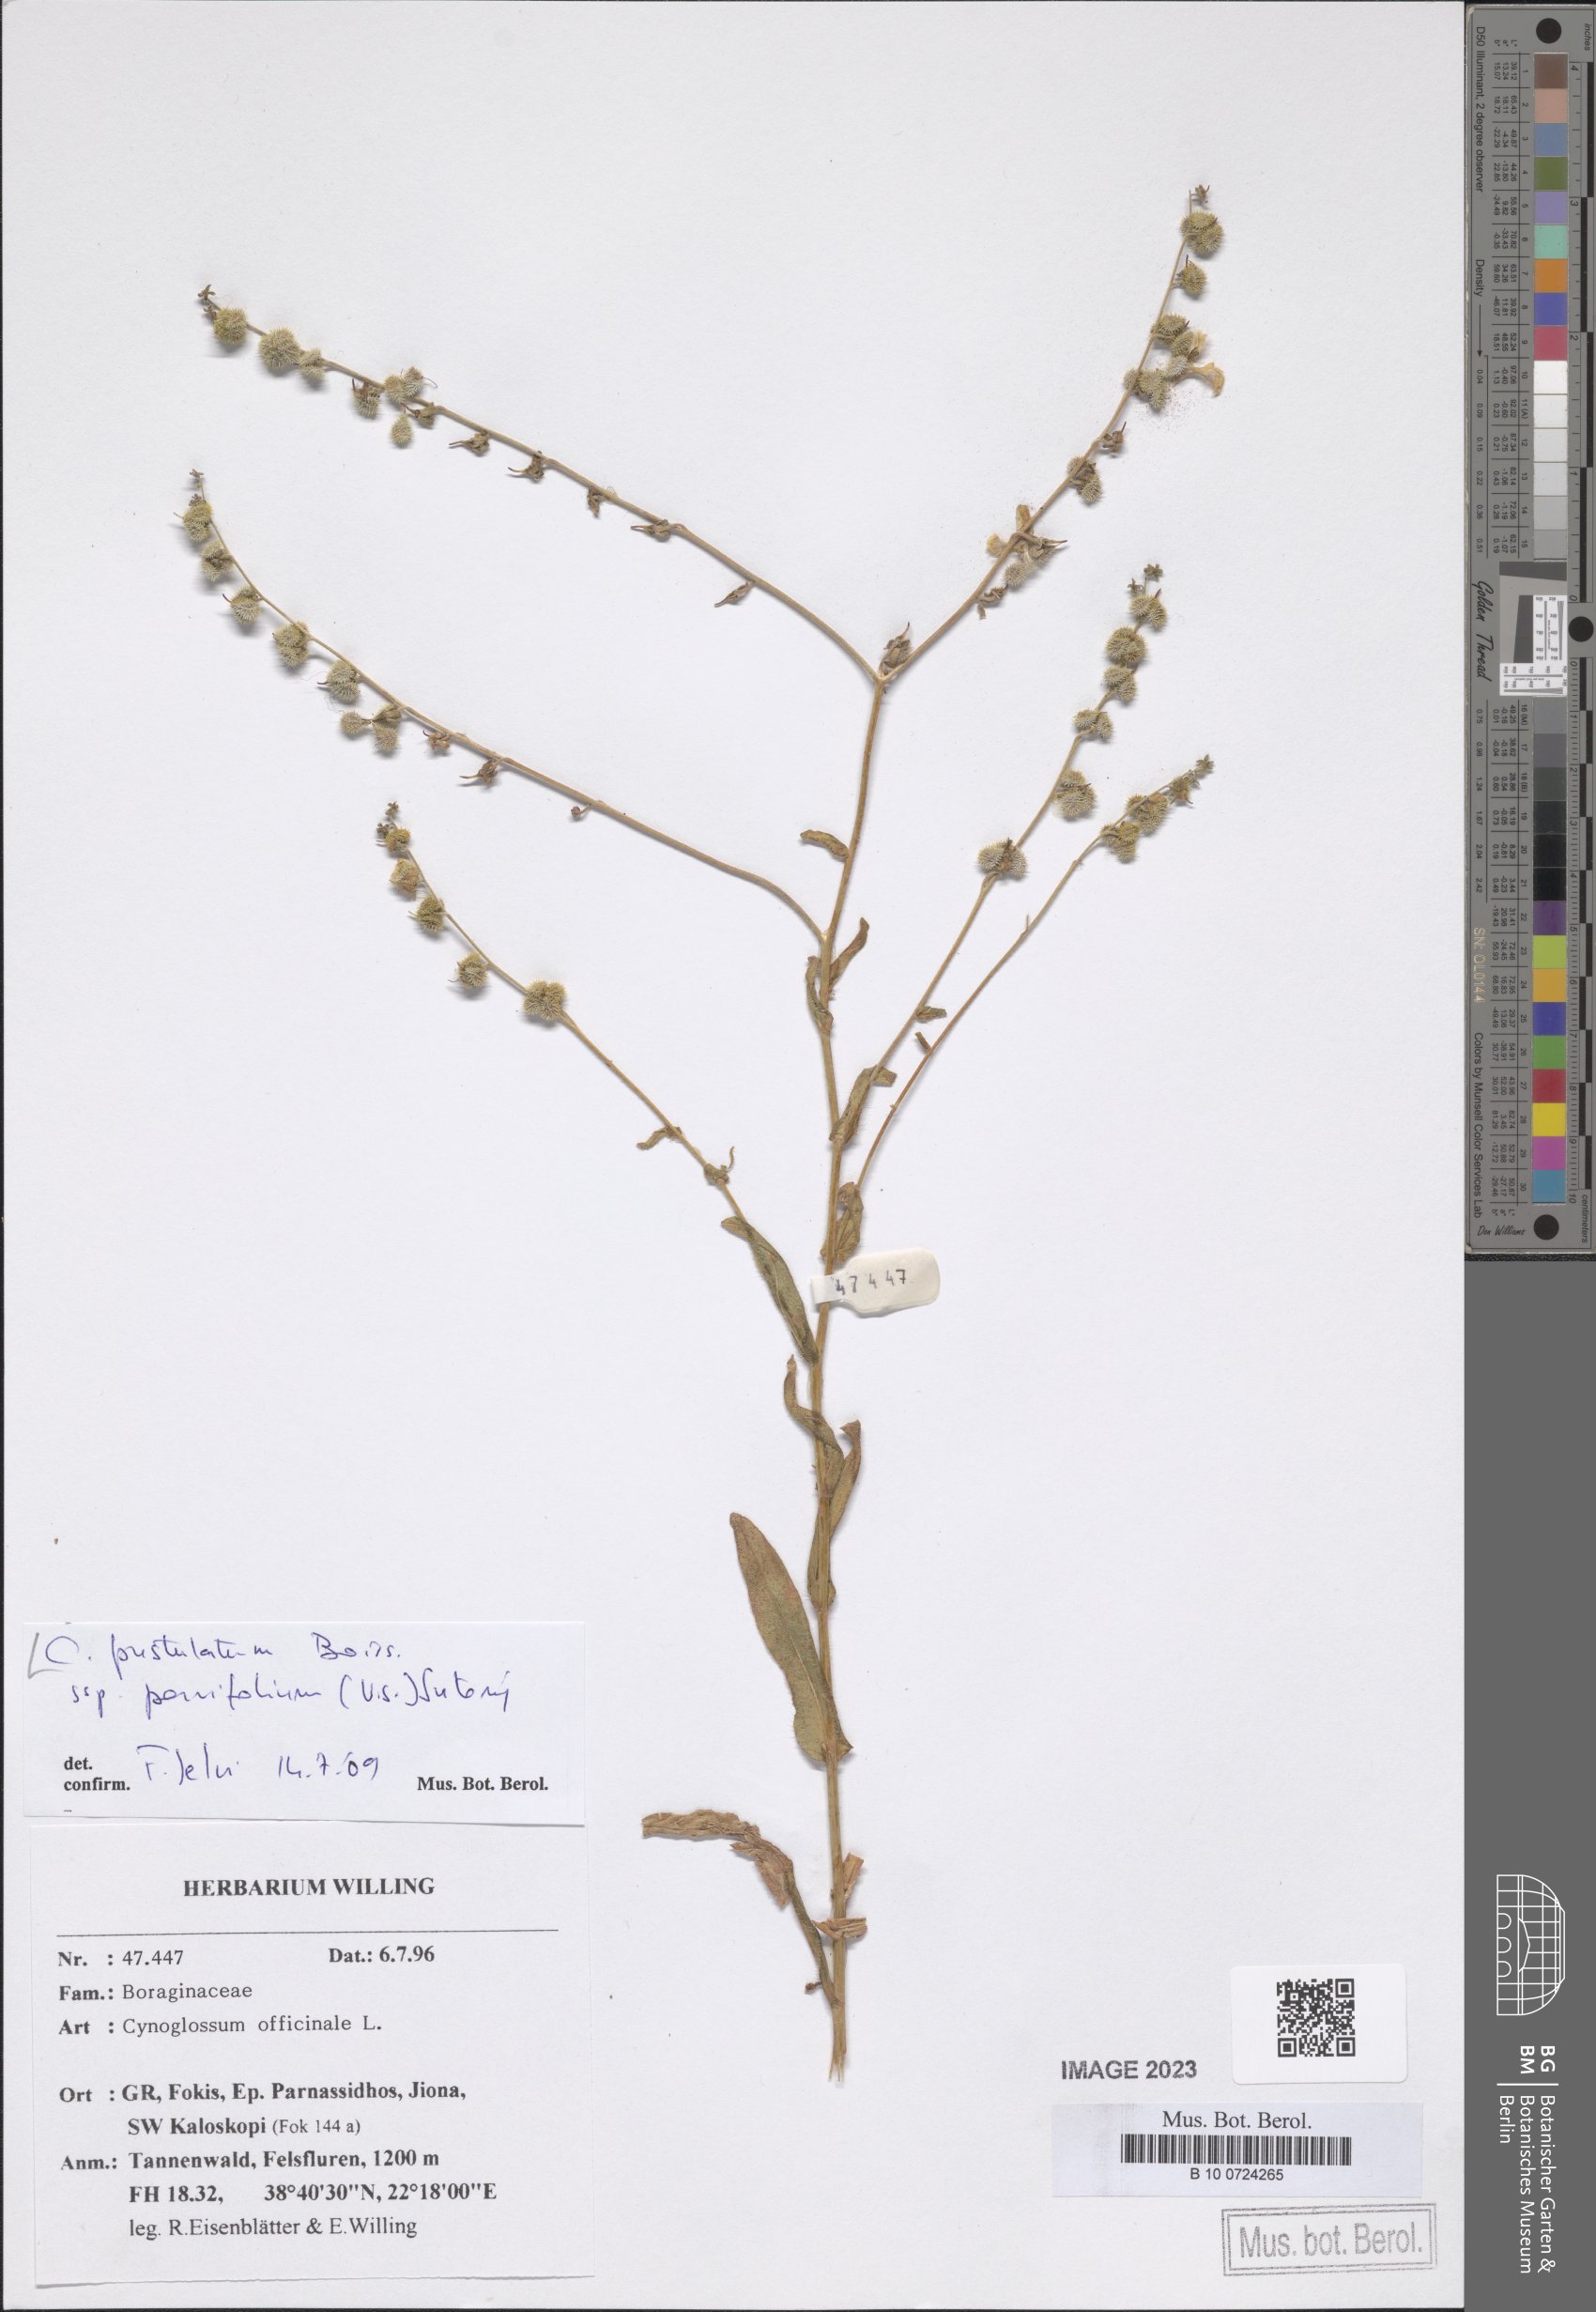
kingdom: Plantae
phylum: Tracheophyta
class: Magnoliopsida
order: Boraginales
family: Boraginaceae
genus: Cynoglossum
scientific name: Cynoglossum pustulatum
